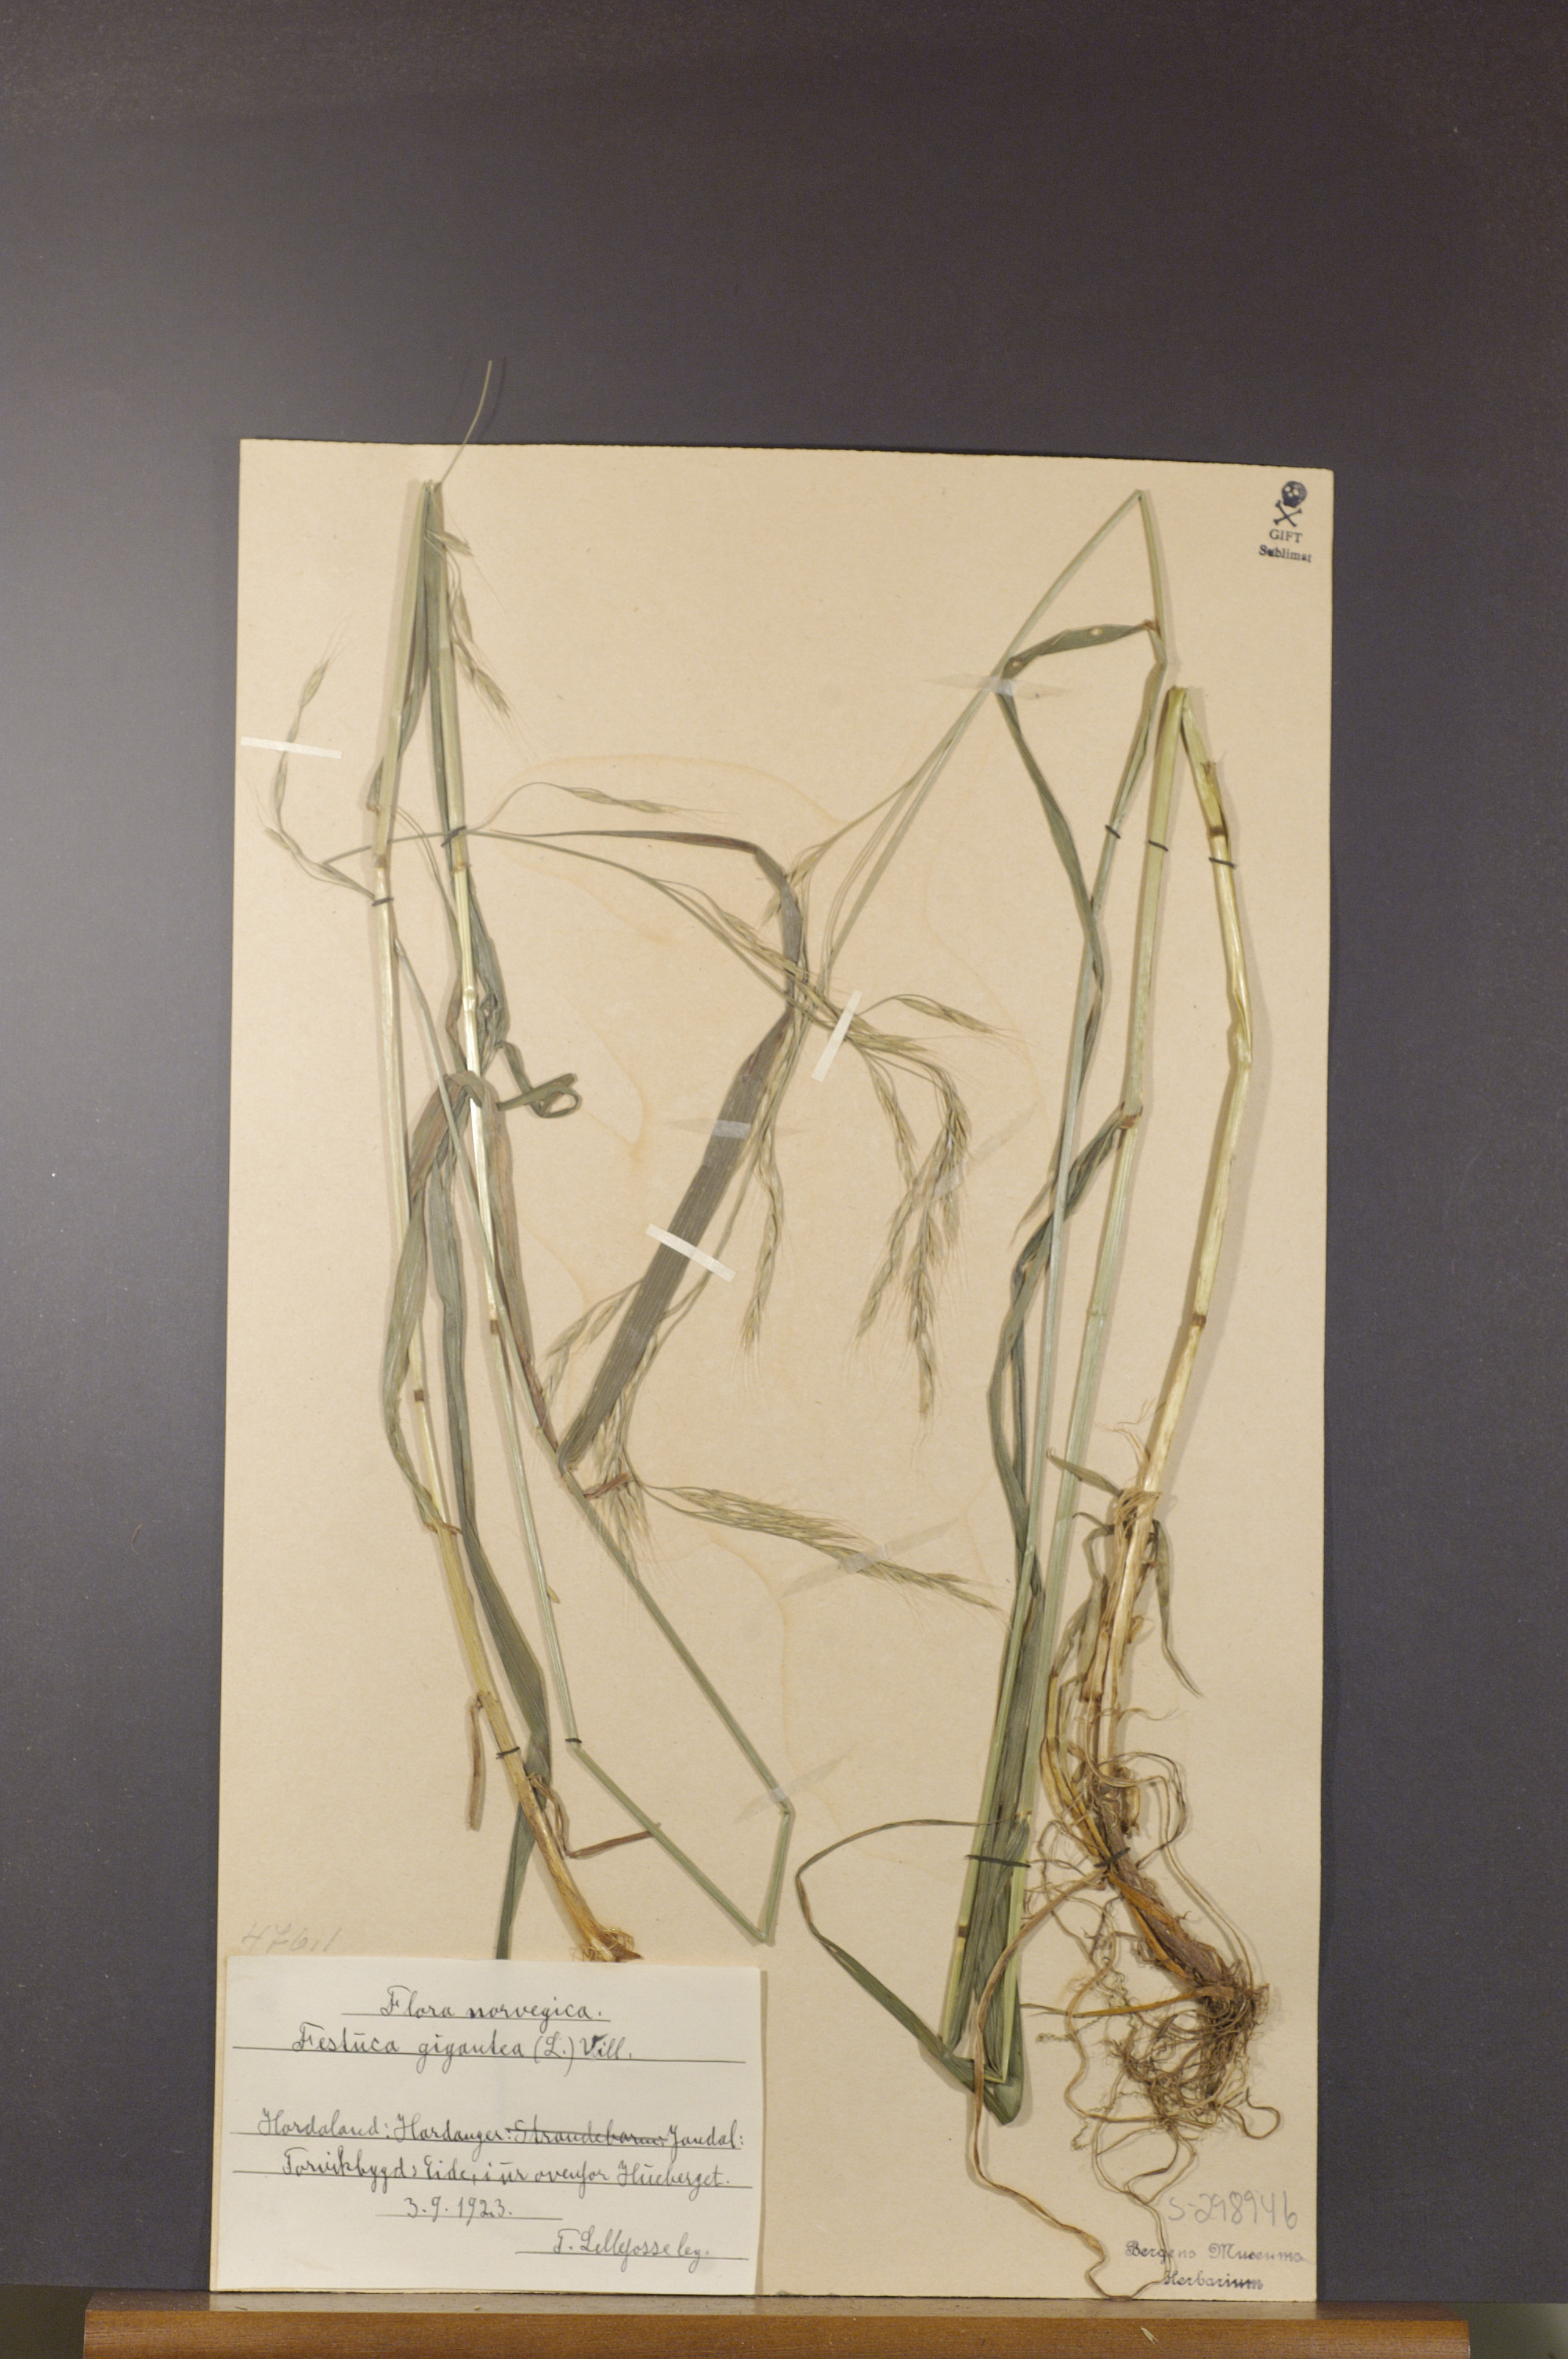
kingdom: Plantae
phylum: Tracheophyta
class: Liliopsida
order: Poales
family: Poaceae
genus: Lolium
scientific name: Lolium giganteum
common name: Giant fescue
